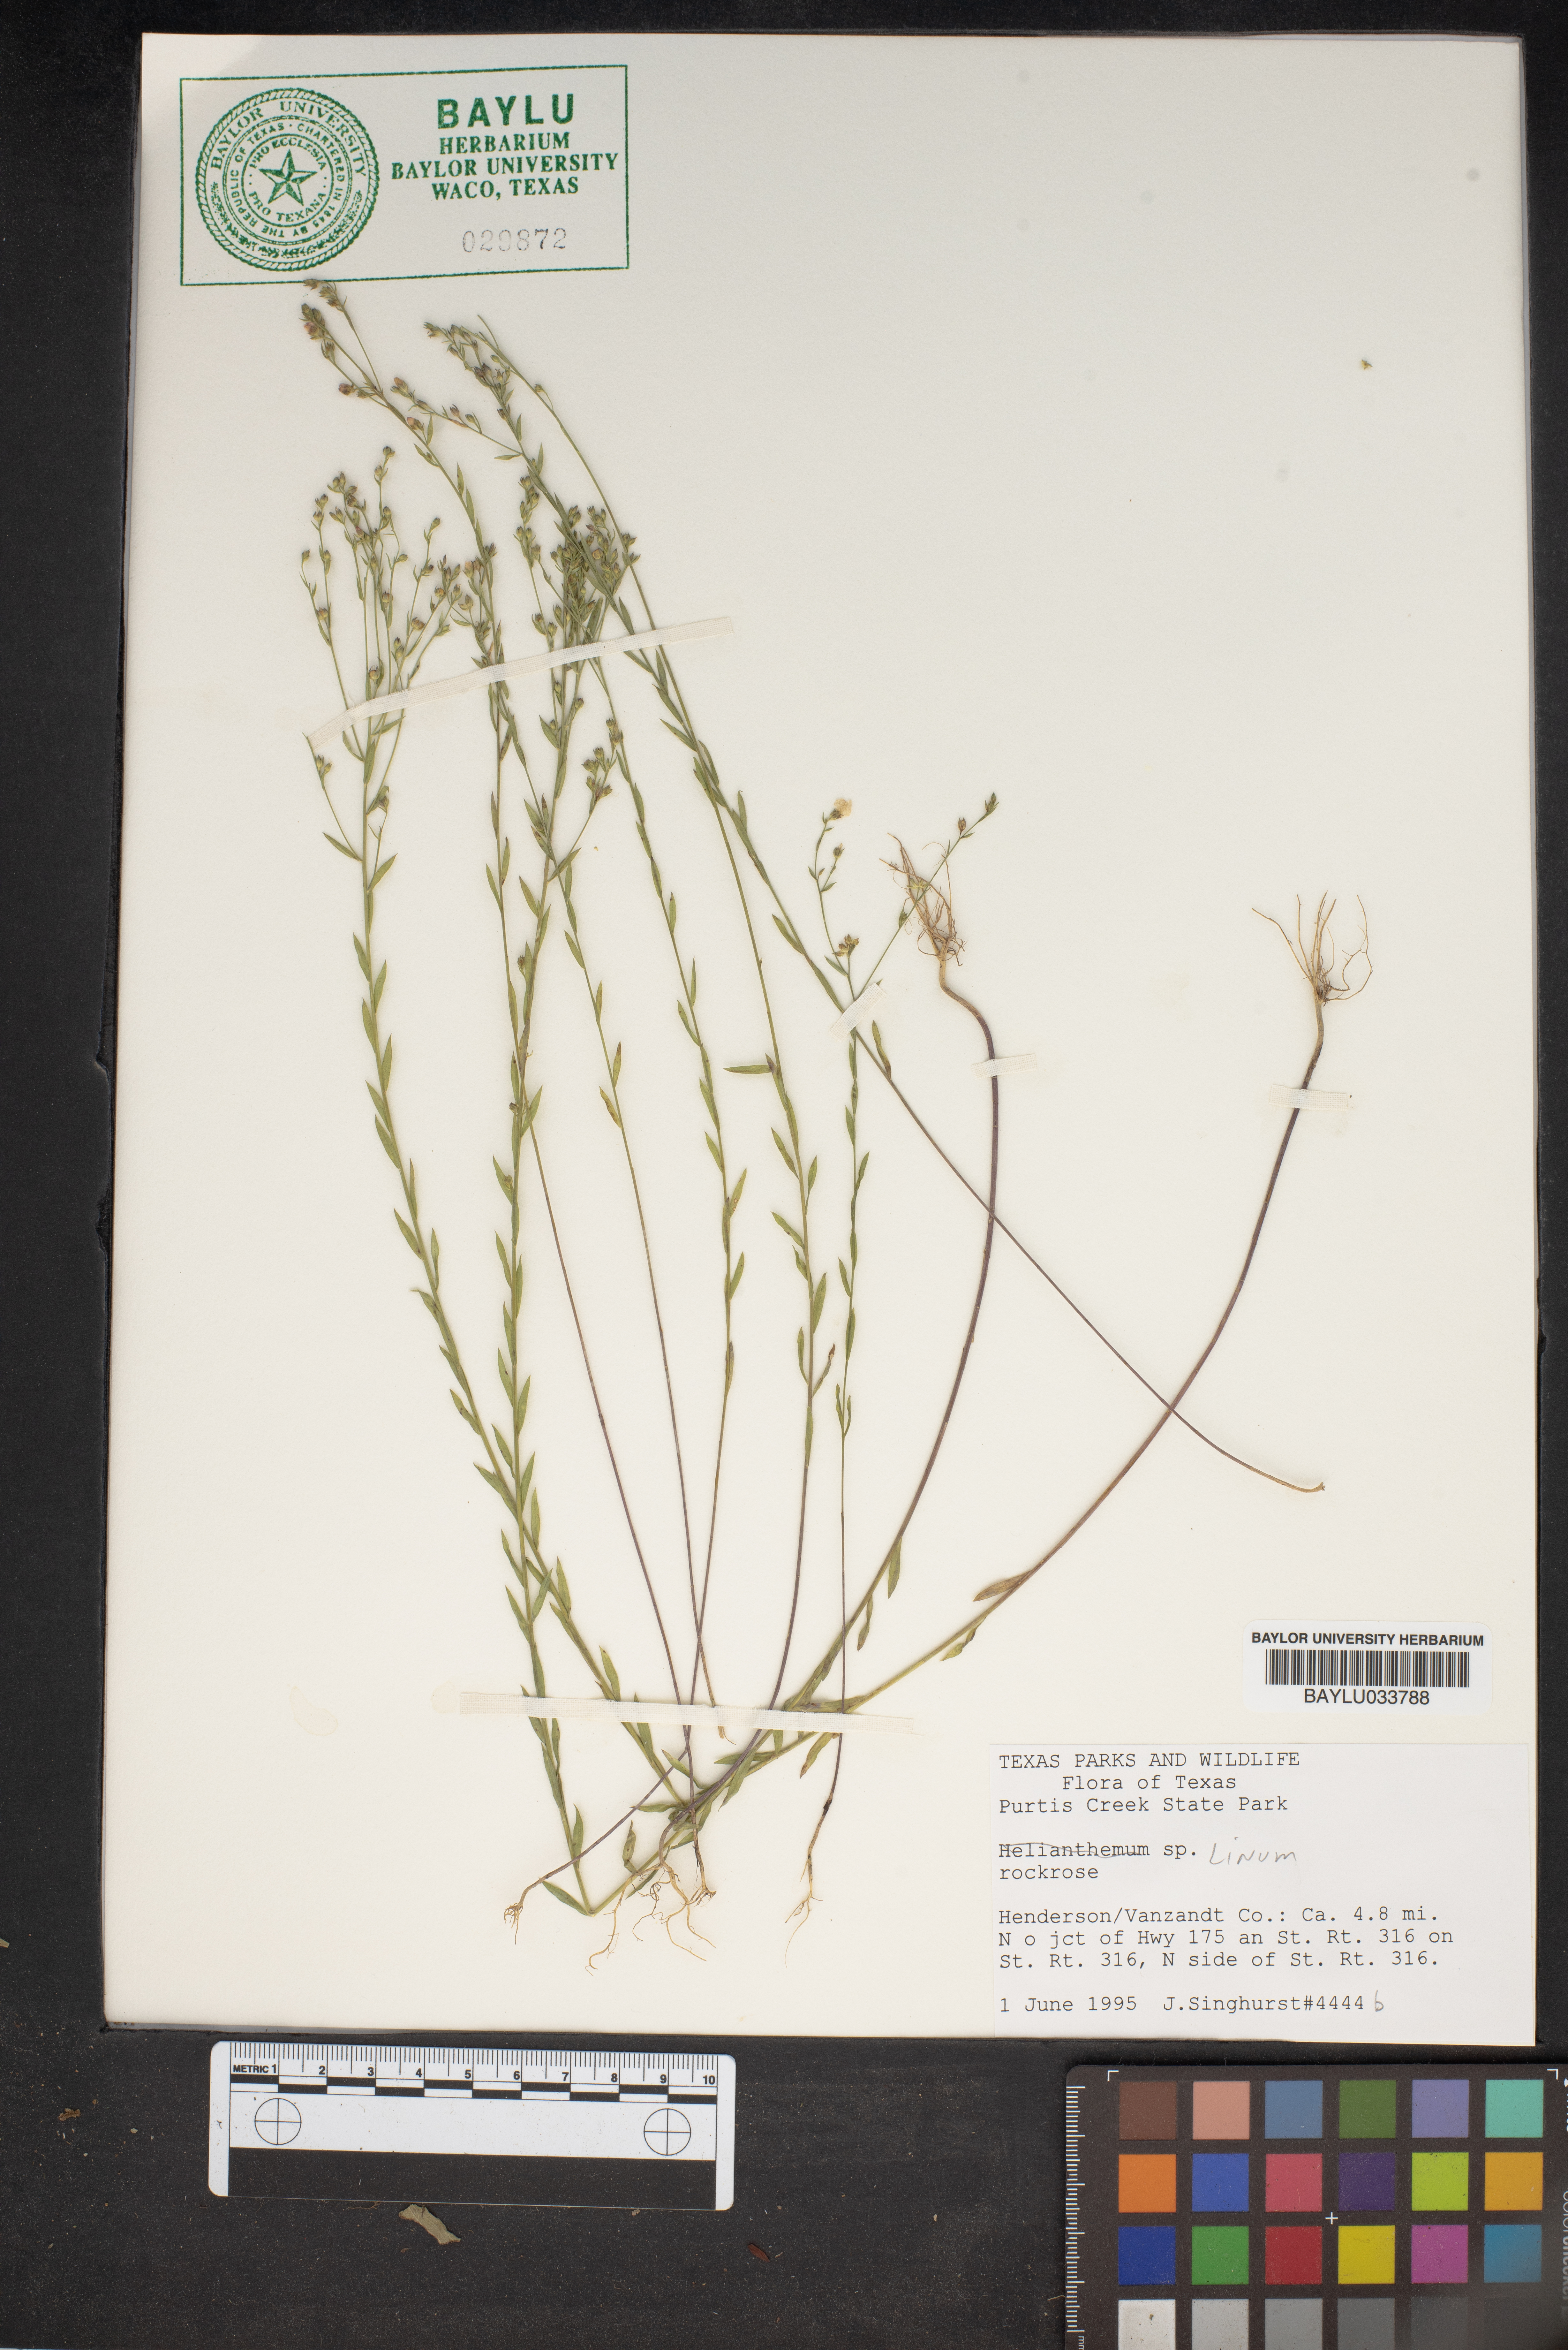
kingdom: Plantae
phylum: Tracheophyta
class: Magnoliopsida
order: Malpighiales
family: Linaceae
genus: Linum
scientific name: Linum
